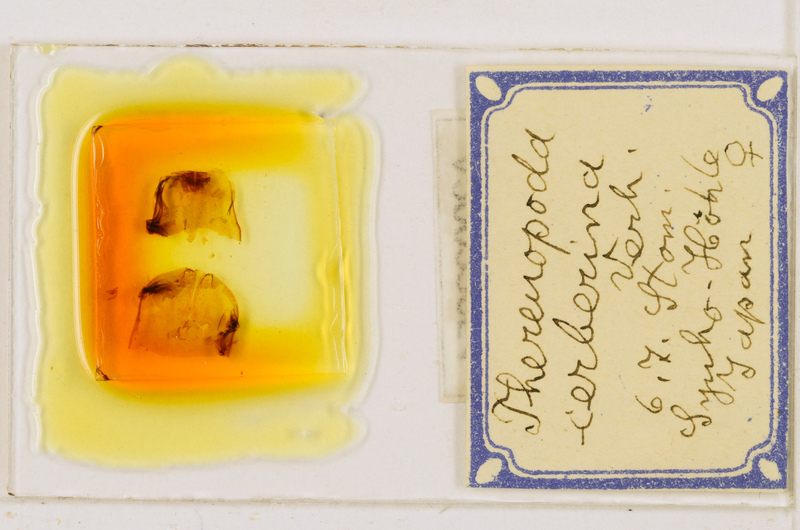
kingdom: Animalia
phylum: Arthropoda
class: Chilopoda
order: Scutigeromorpha
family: Scutigeridae
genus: Thereuopoda
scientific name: Thereuopoda longicornis
